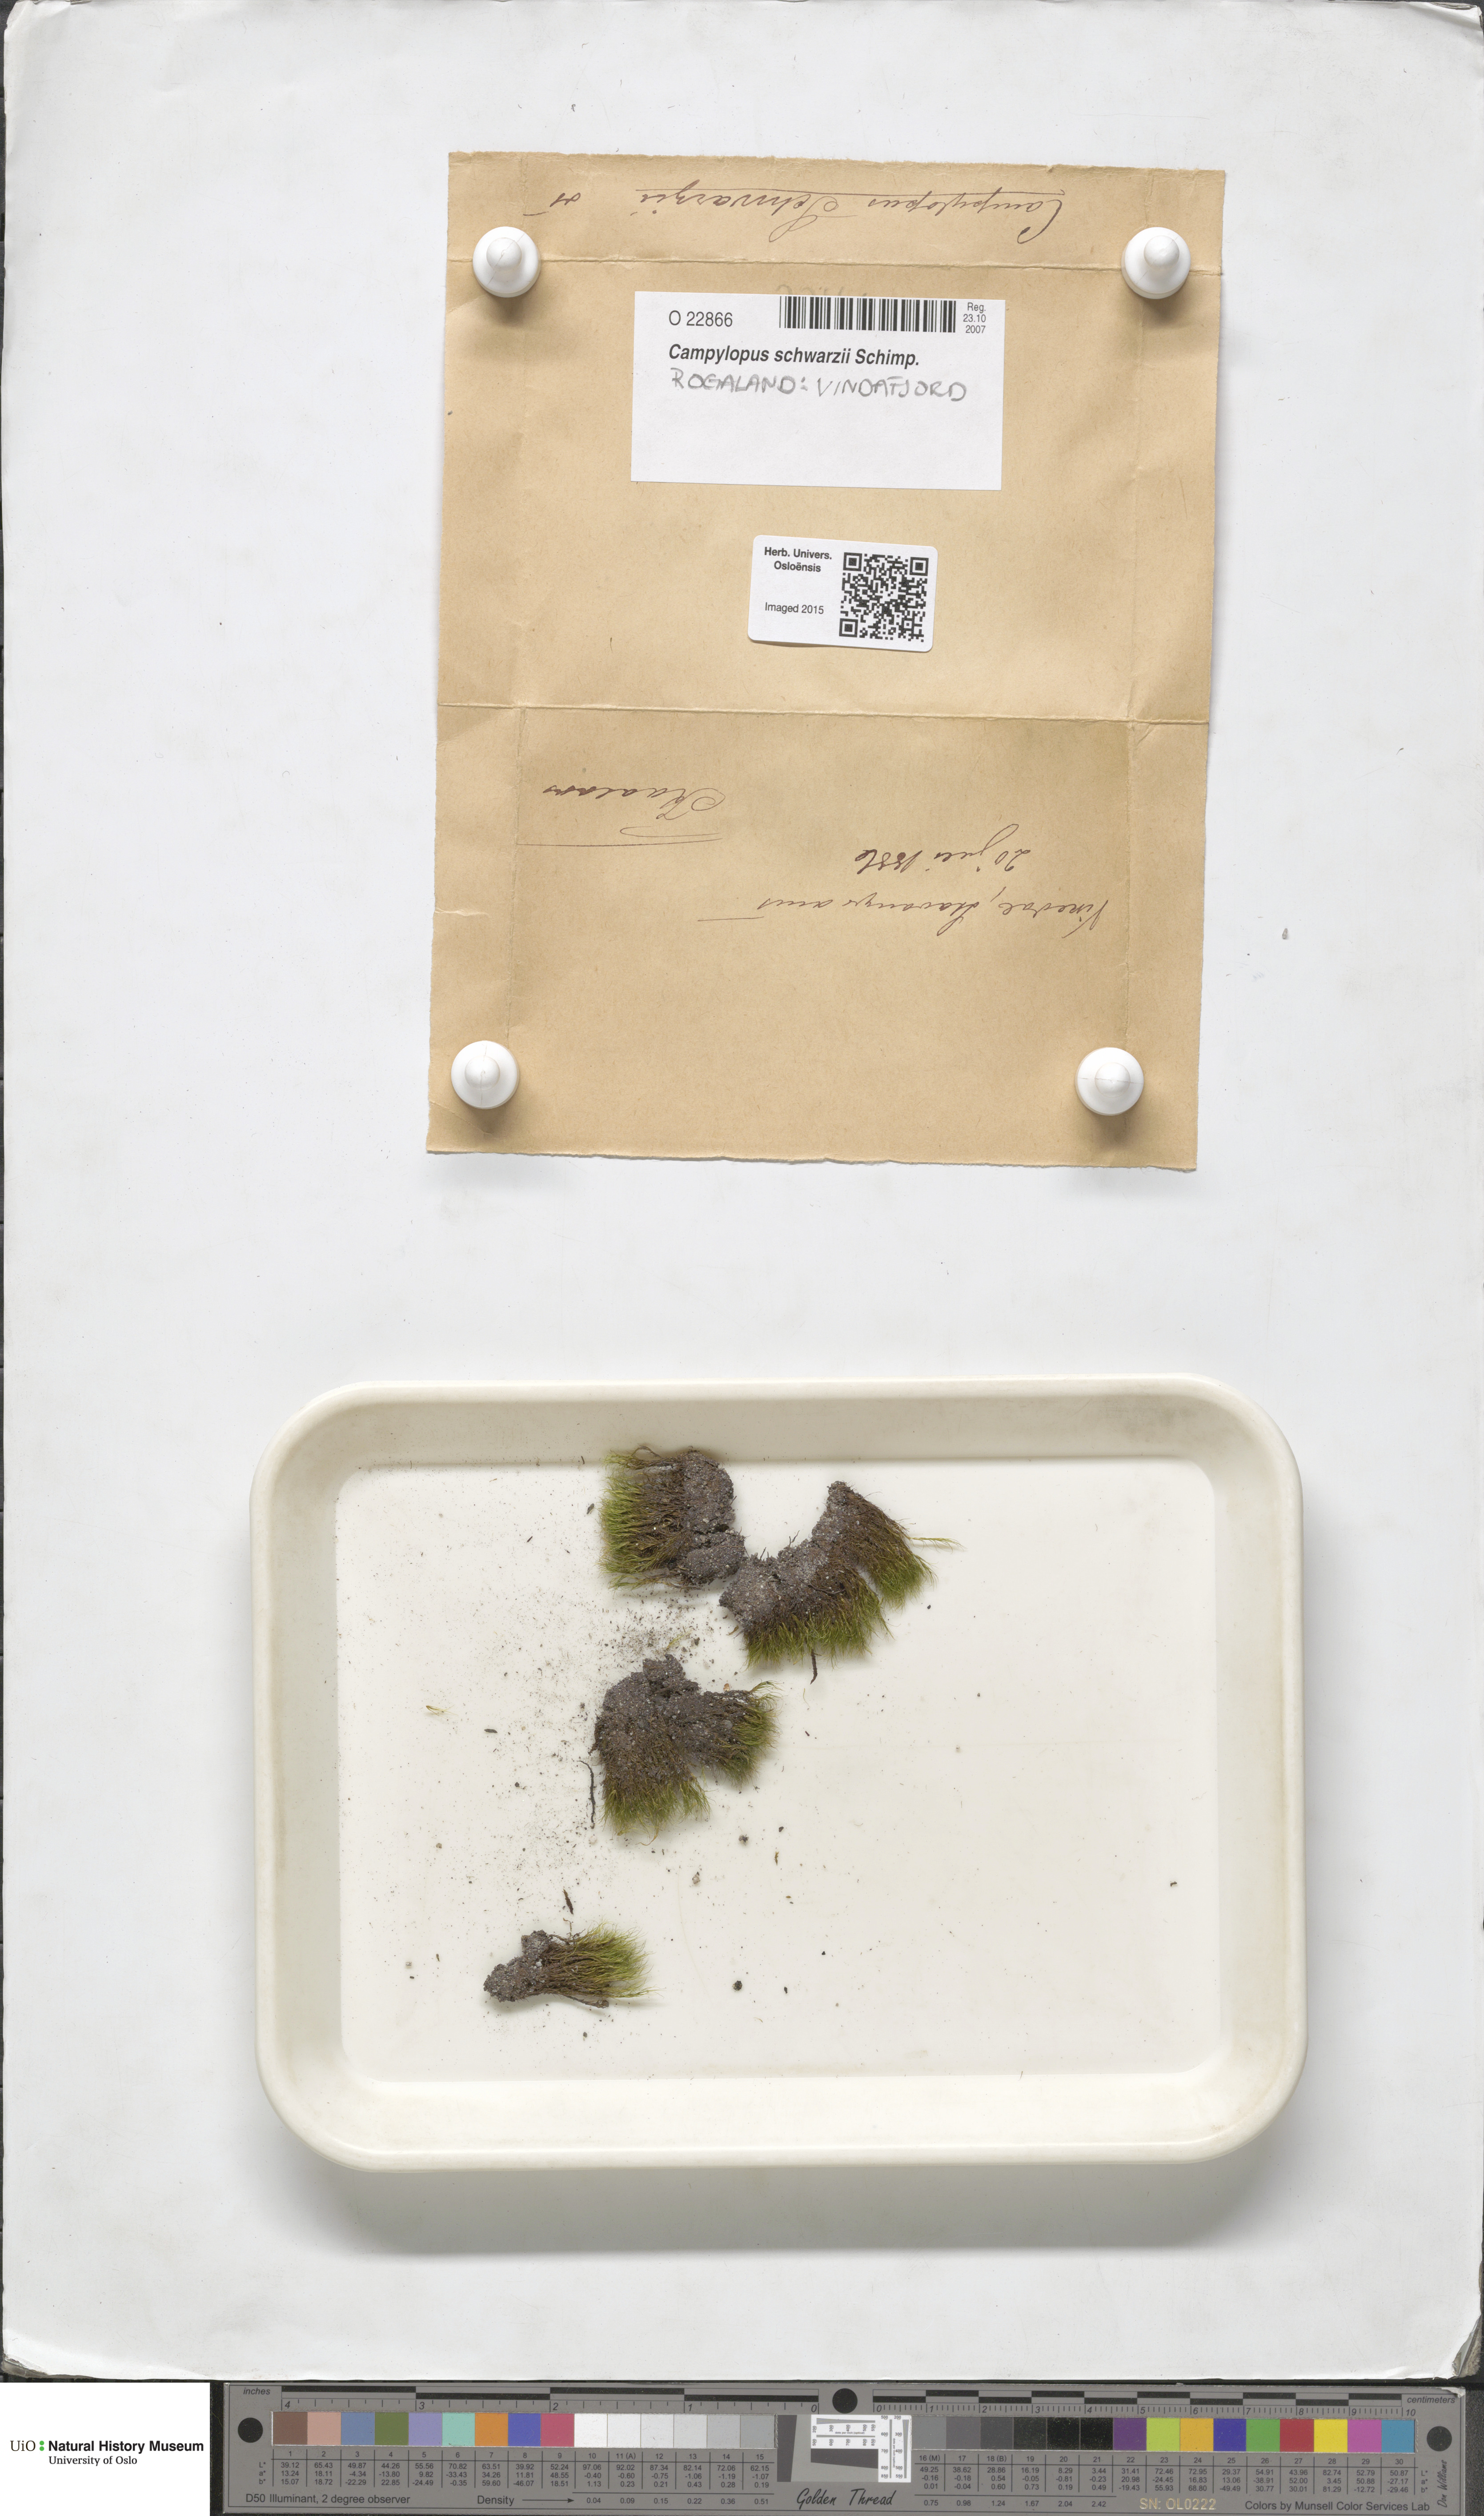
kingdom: Plantae
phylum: Bryophyta
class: Bryopsida
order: Dicranales
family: Leucobryaceae
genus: Campylopus
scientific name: Campylopus gracilis
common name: Schwarz's swan-neck moss
